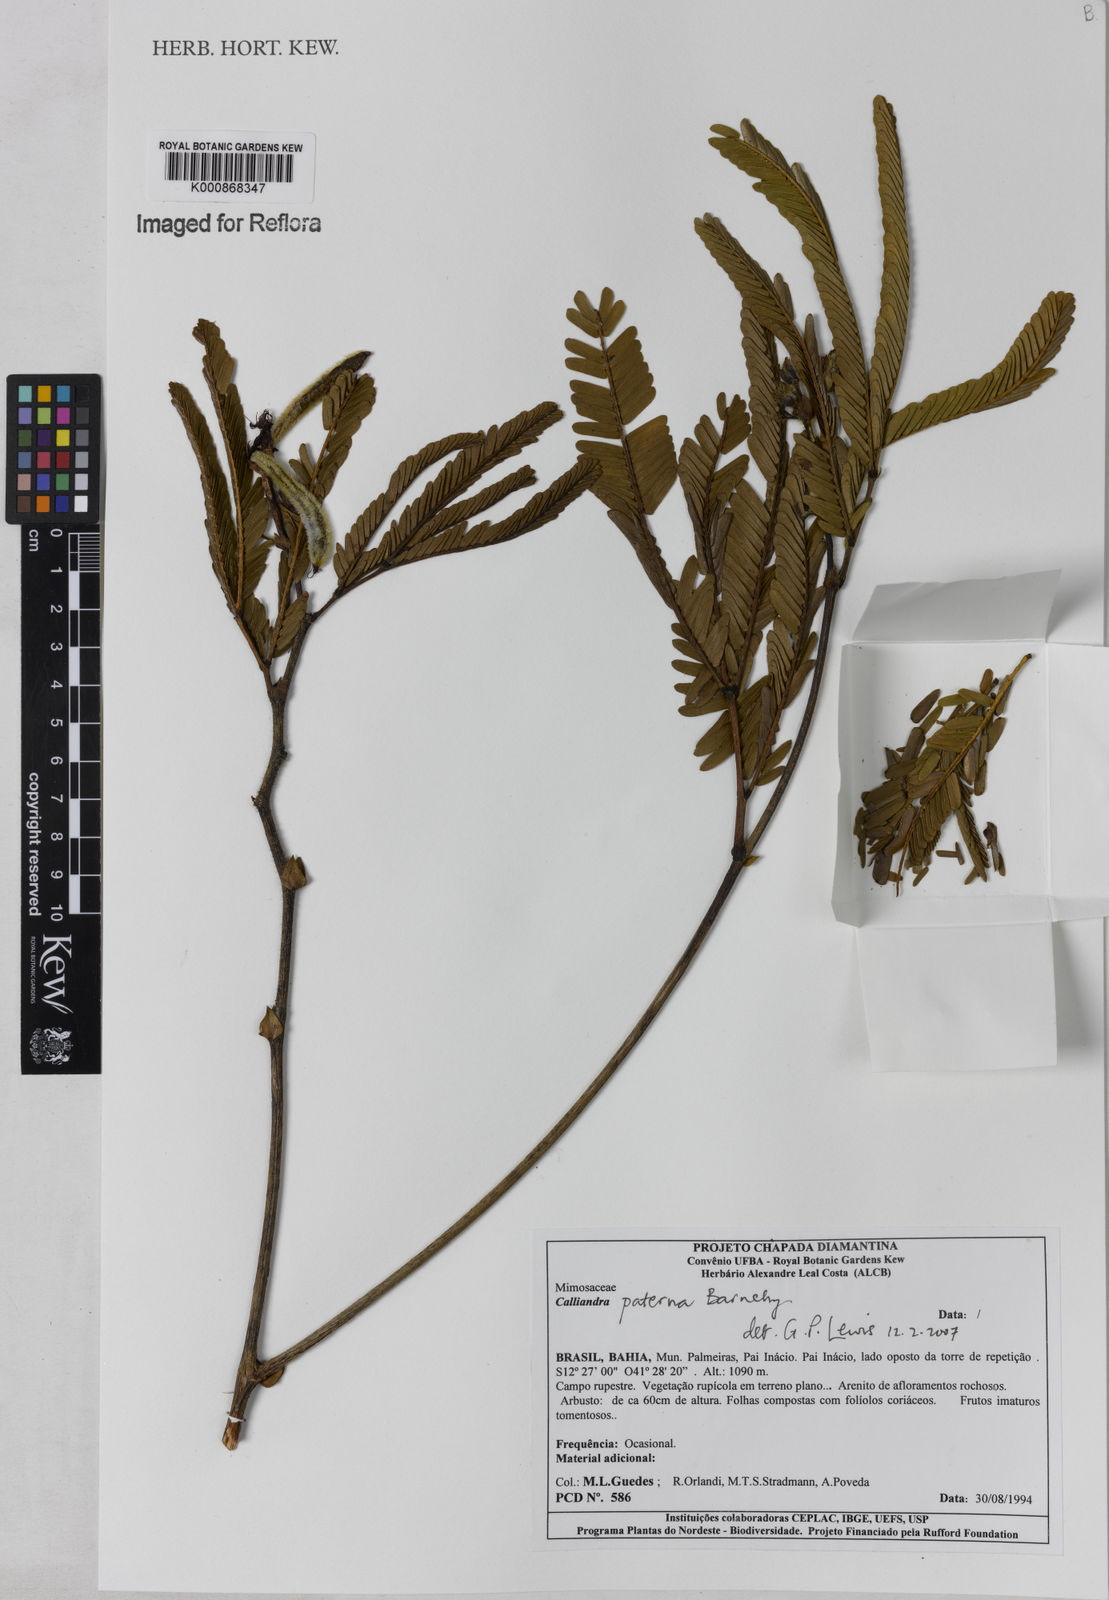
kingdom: Plantae
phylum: Tracheophyta
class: Magnoliopsida
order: Fabales
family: Fabaceae
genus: Calliandra
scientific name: Calliandra paterna
